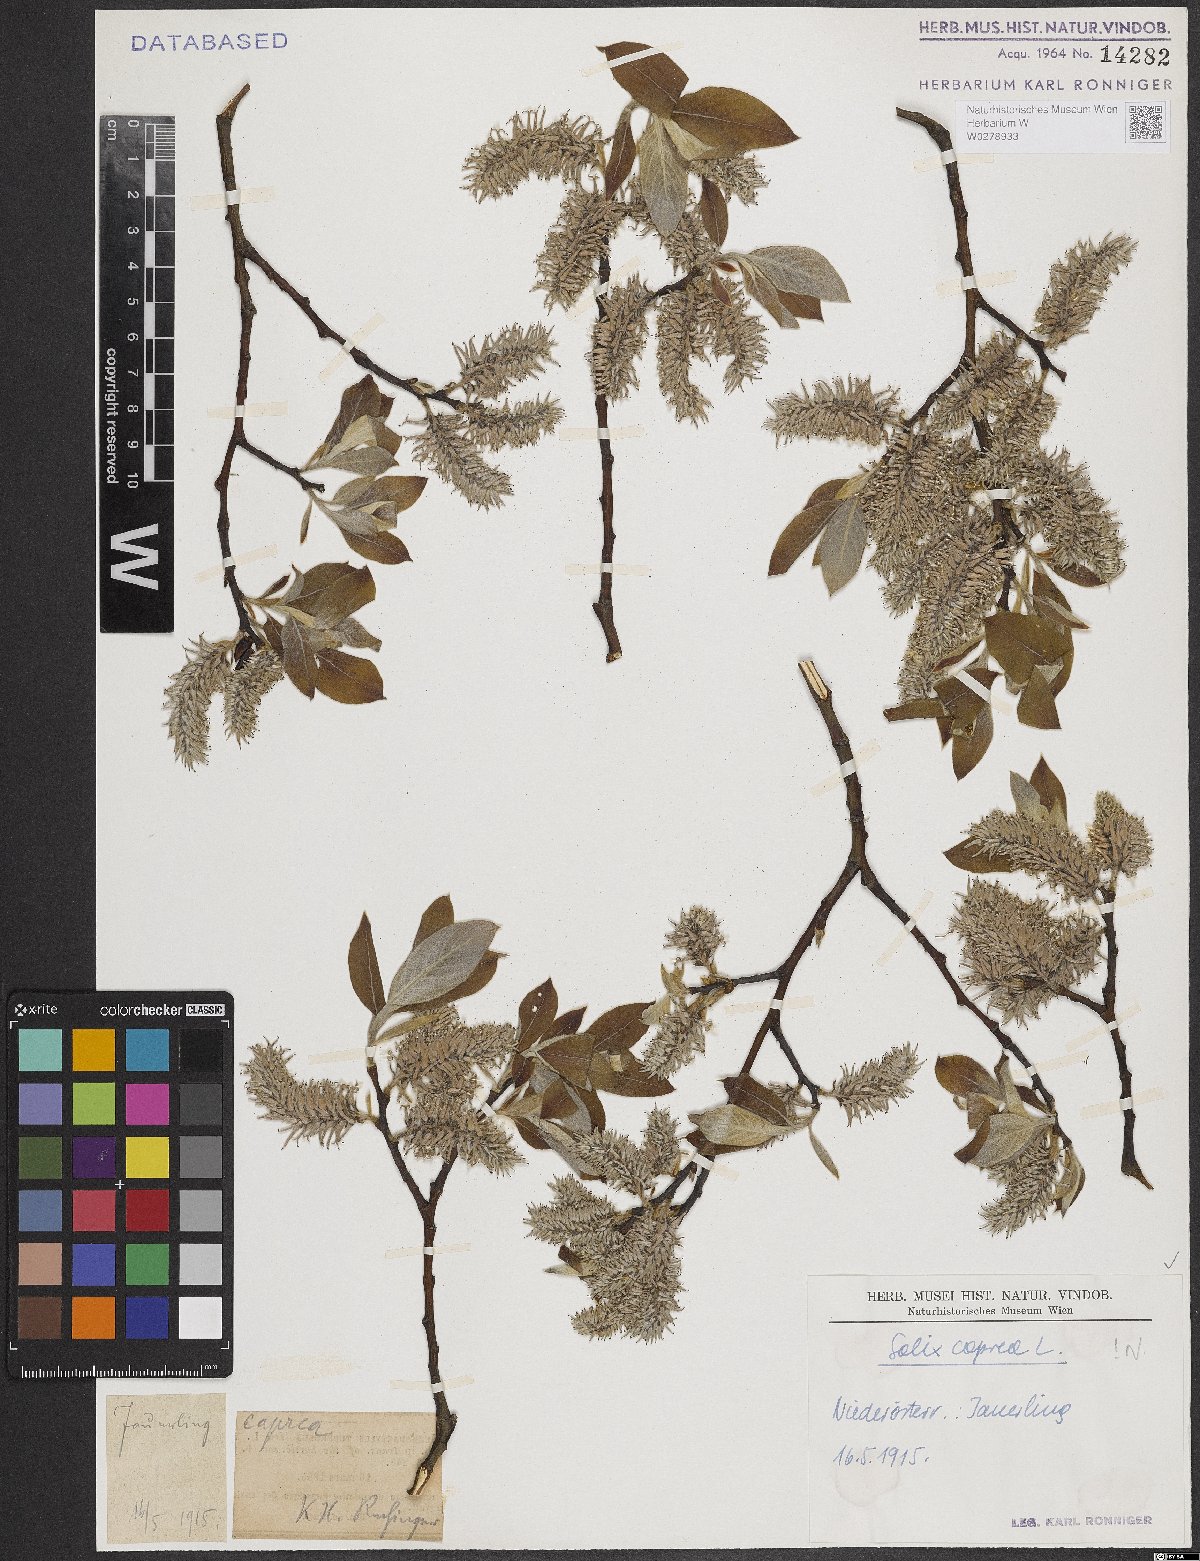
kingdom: Plantae
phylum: Tracheophyta
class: Magnoliopsida
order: Malpighiales
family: Salicaceae
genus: Salix
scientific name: Salix caprea
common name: Goat willow
